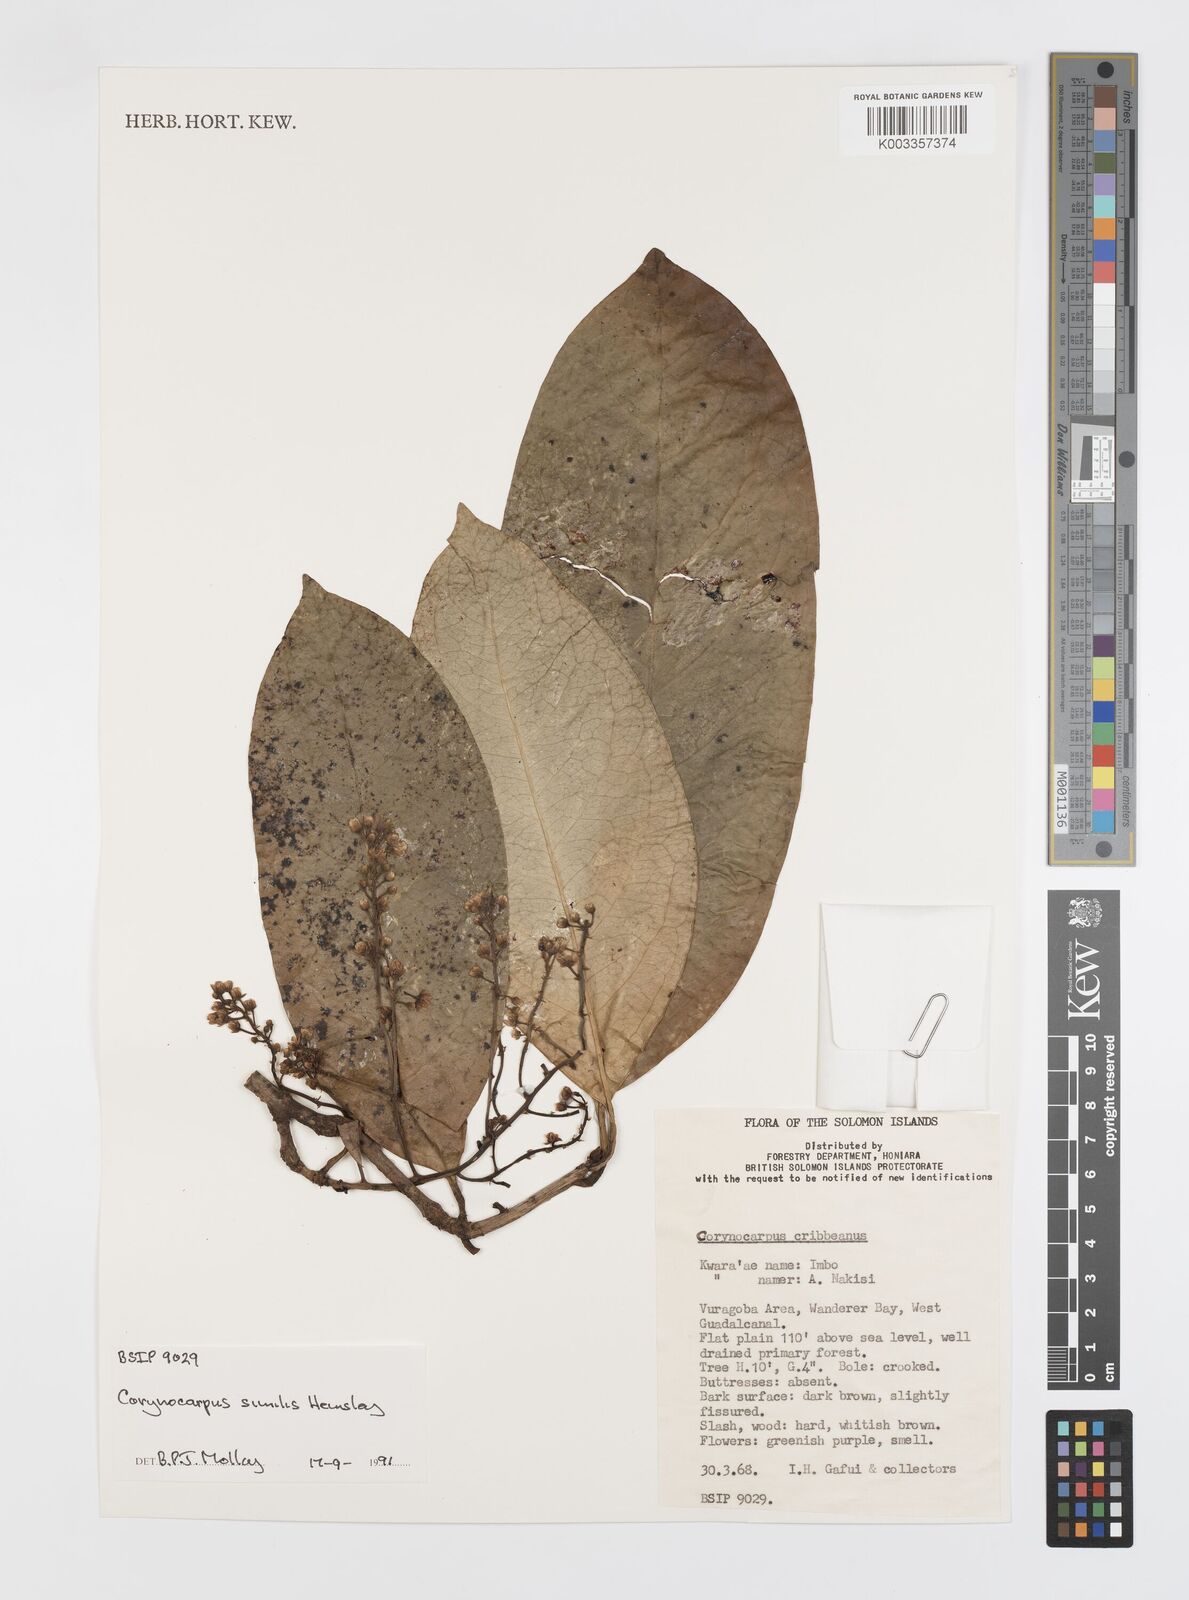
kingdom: Plantae
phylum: Tracheophyta
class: Magnoliopsida
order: Cucurbitales
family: Corynocarpaceae
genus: Corynocarpus
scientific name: Corynocarpus similis
